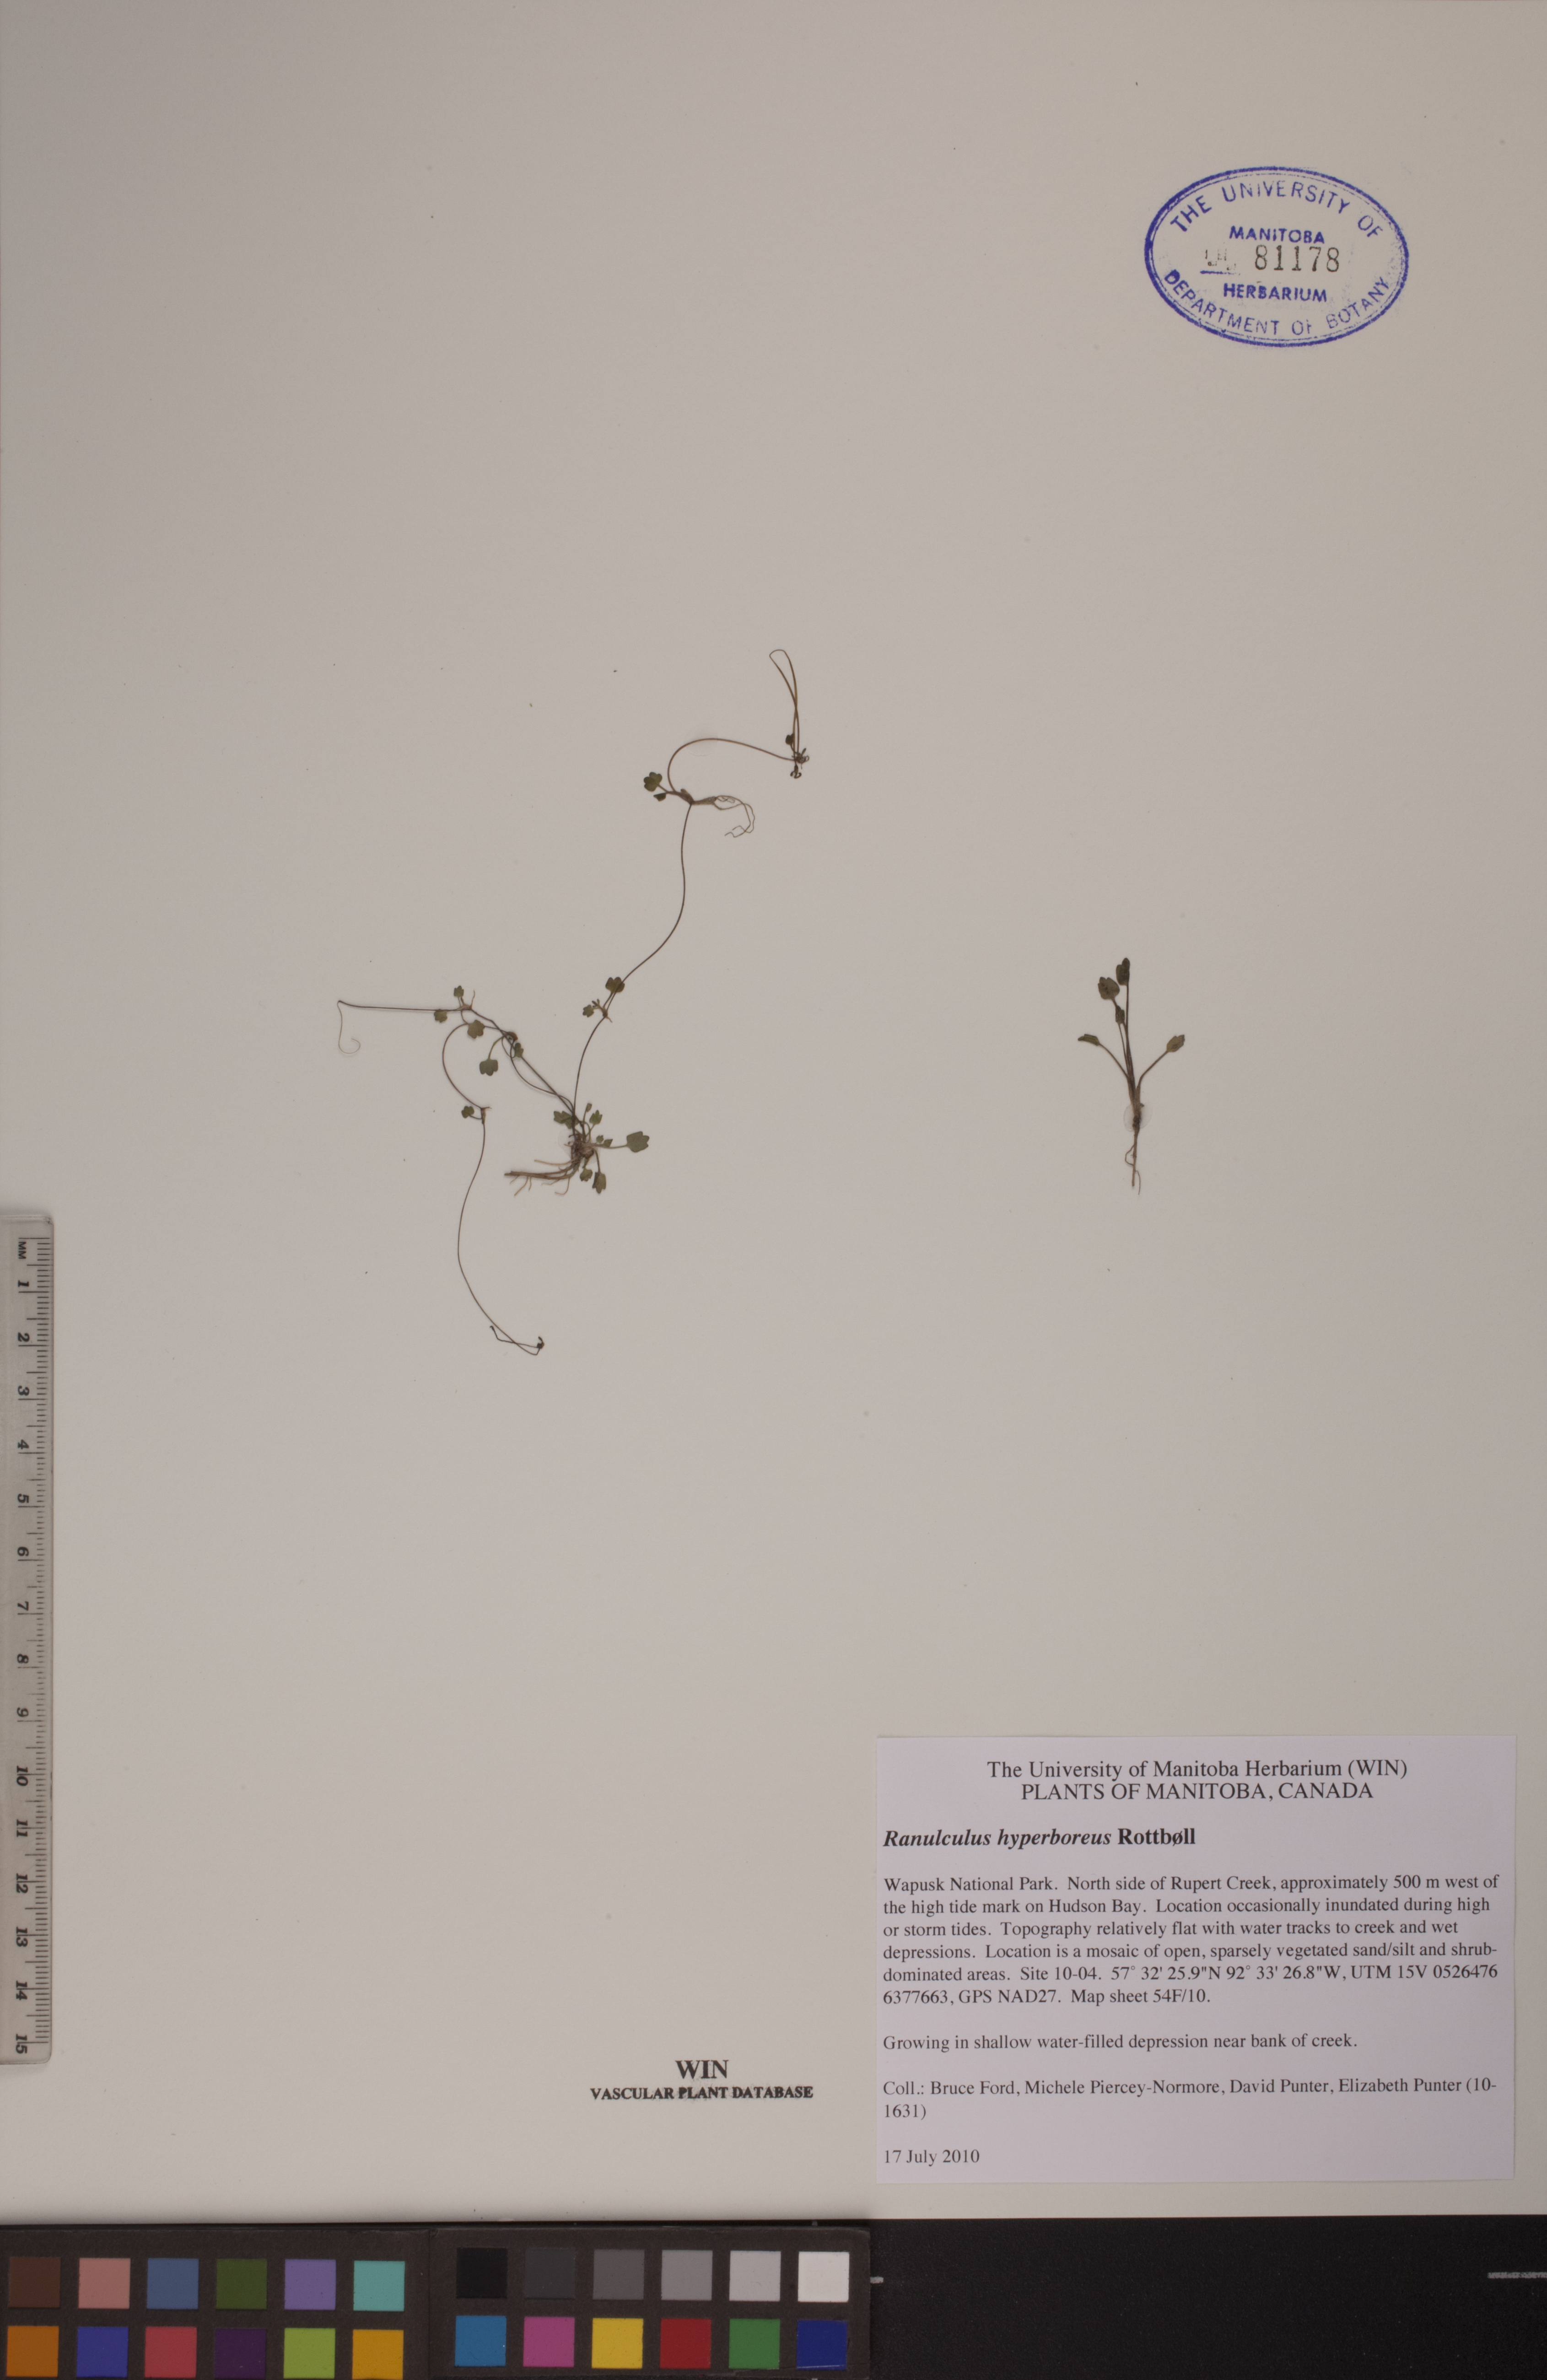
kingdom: Plantae
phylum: Tracheophyta
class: Magnoliopsida
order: Ranunculales
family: Ranunculaceae
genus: Ranunculus
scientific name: Ranunculus hyperboreus
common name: Arctic buttercup
